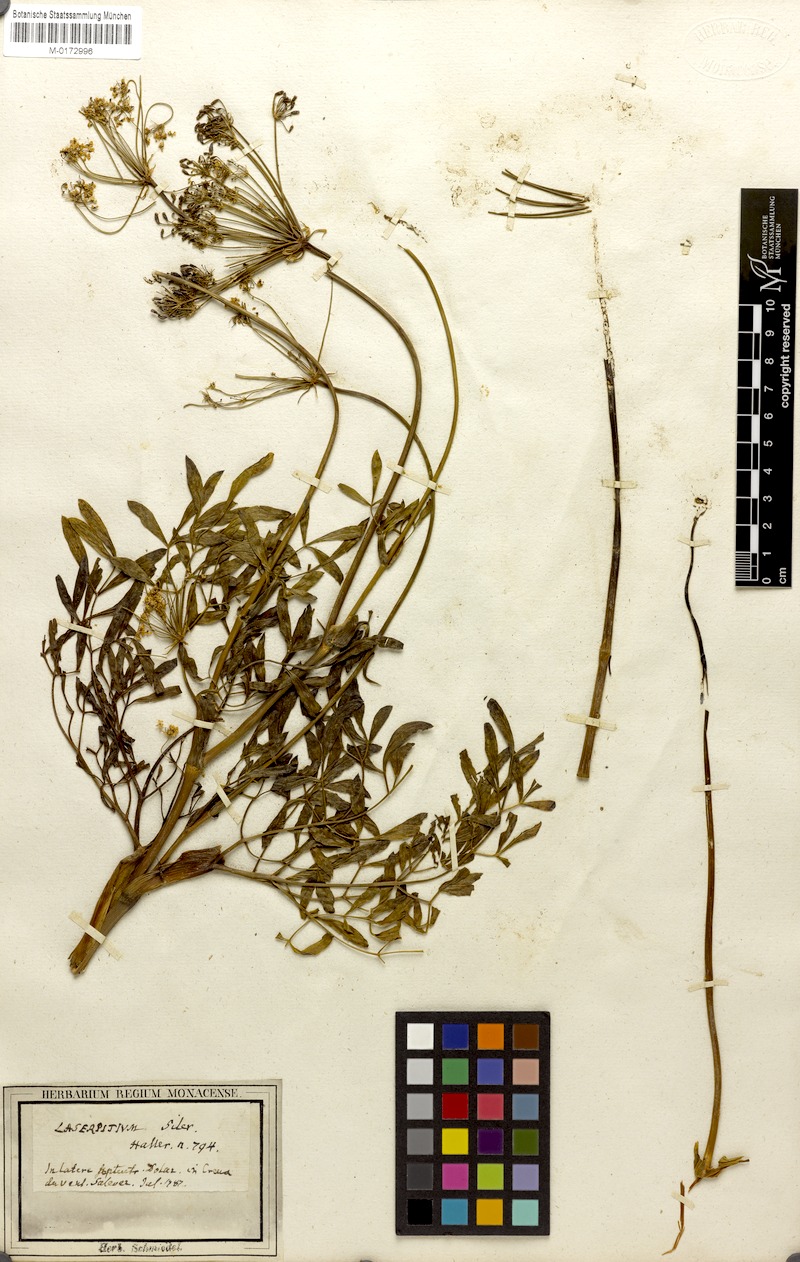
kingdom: Plantae
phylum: Tracheophyta
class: Magnoliopsida
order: Apiales
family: Apiaceae
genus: Siler
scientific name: Siler montanum
